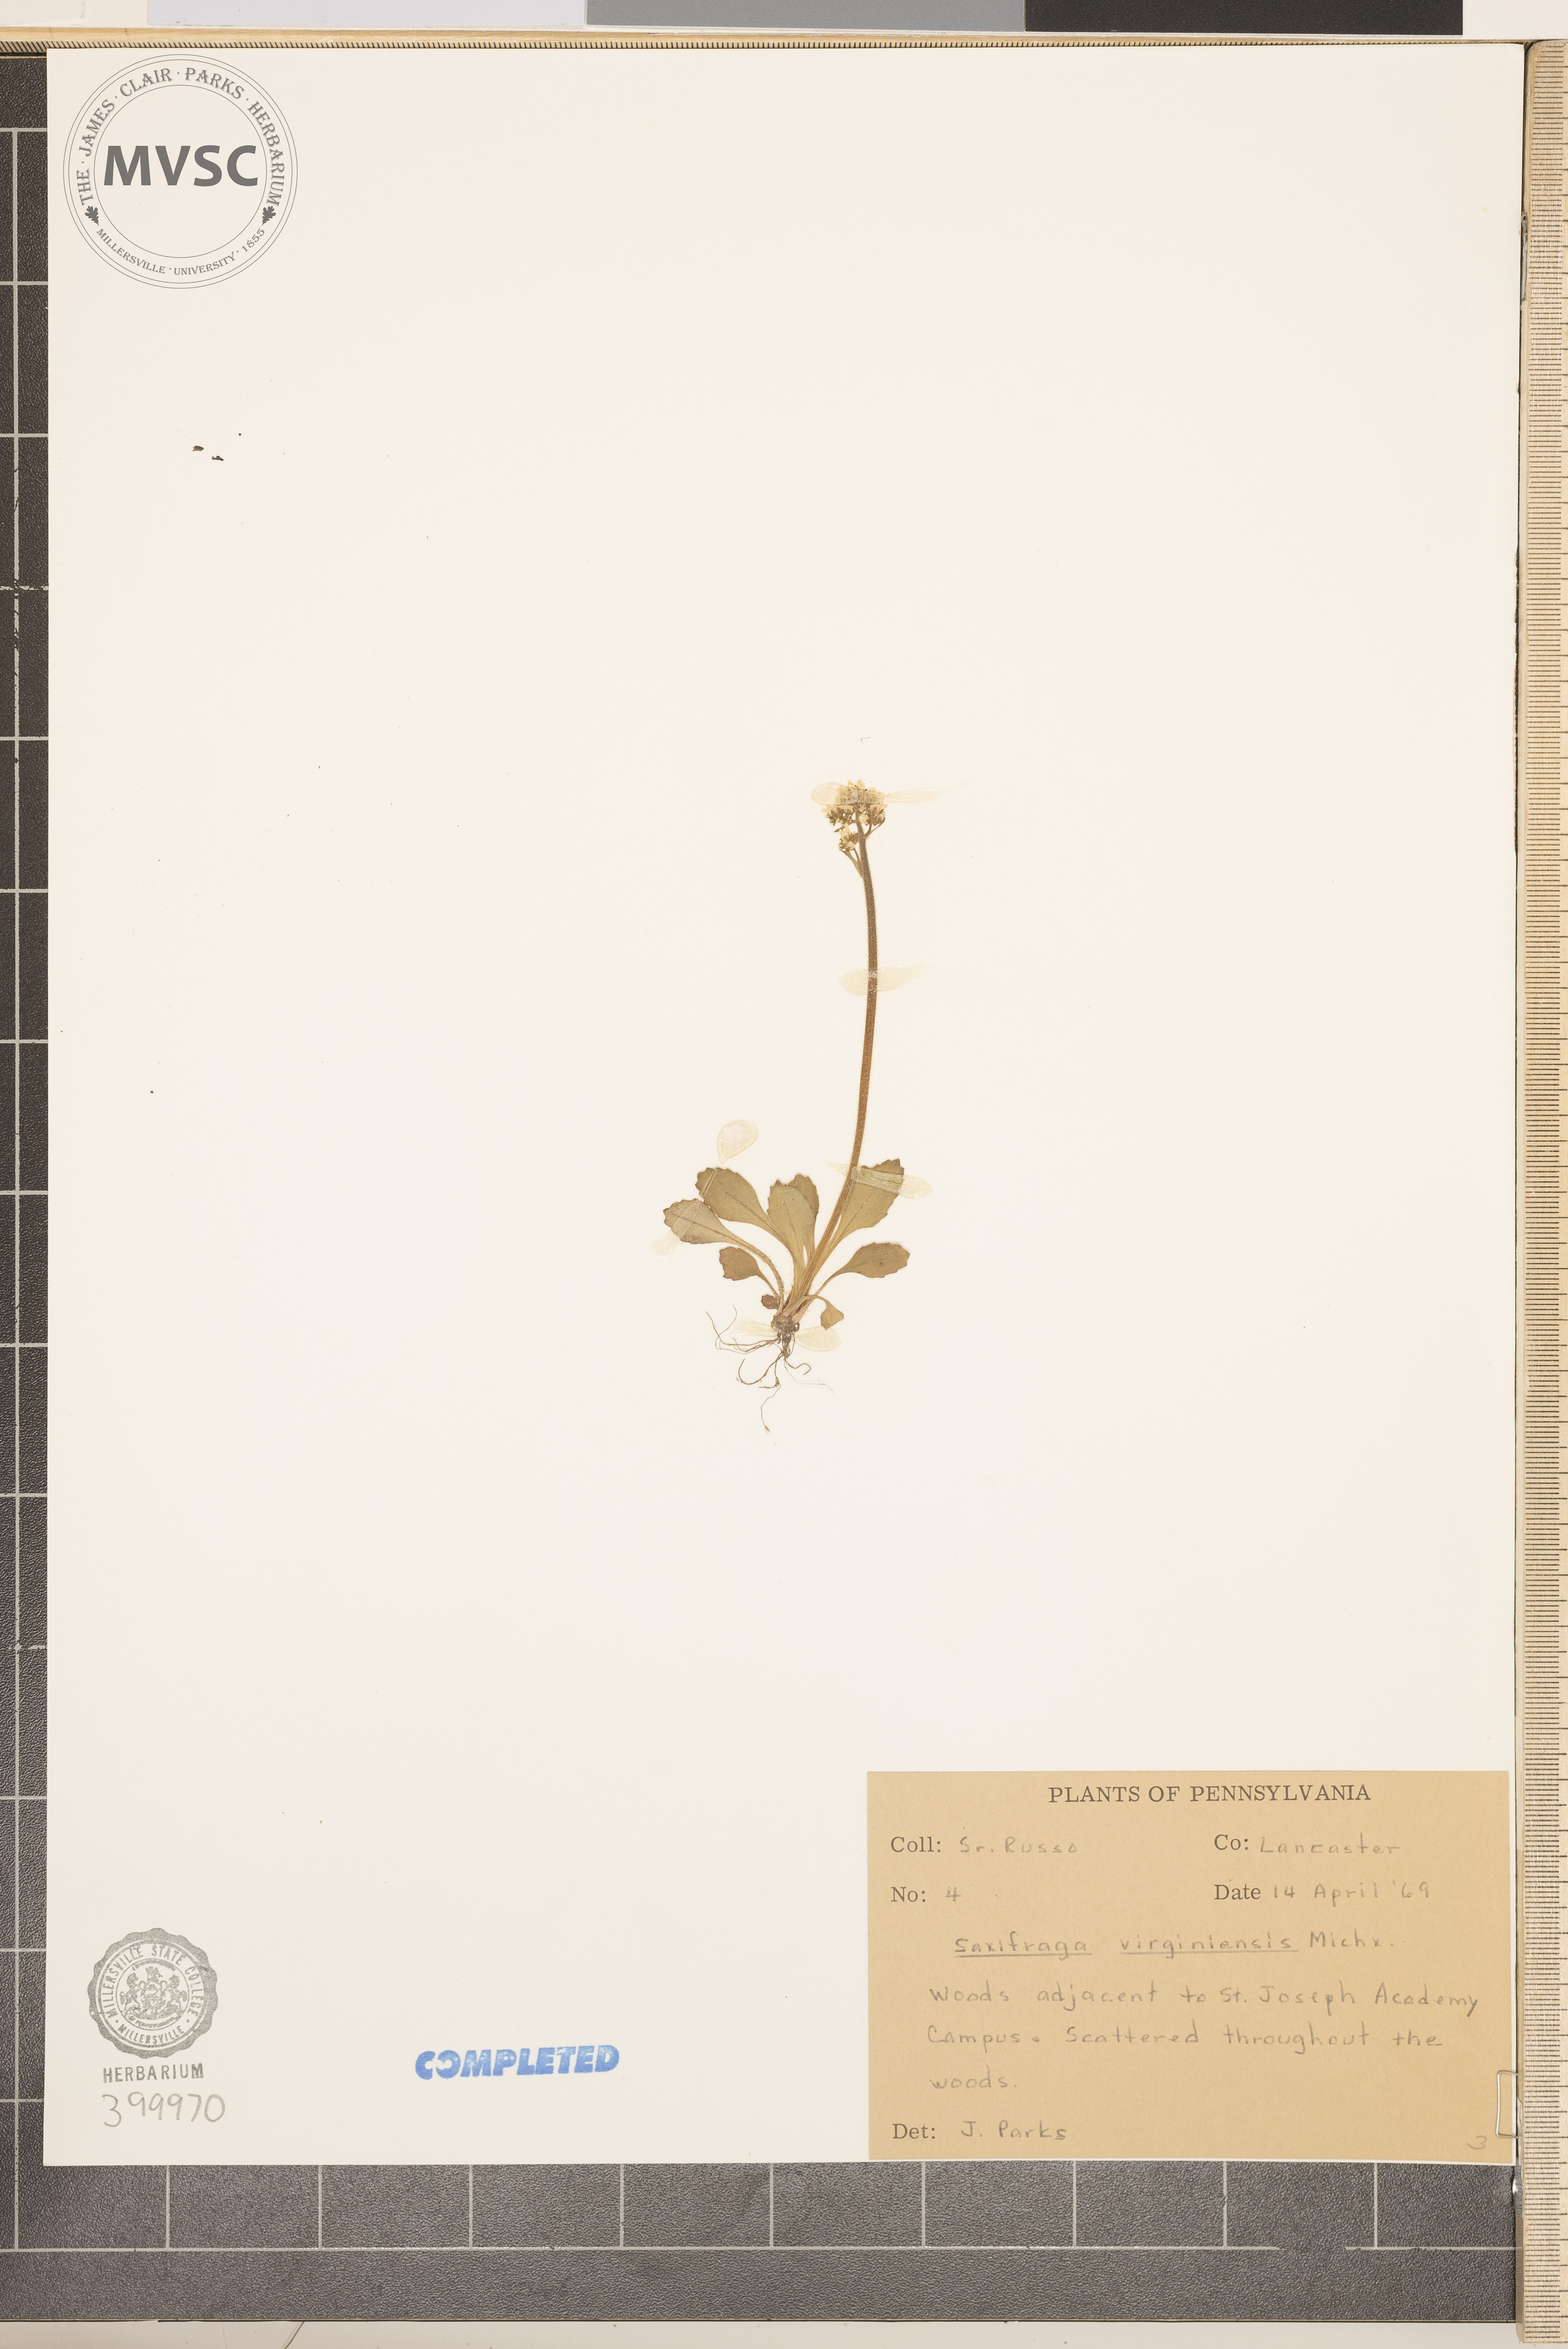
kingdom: Plantae
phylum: Tracheophyta
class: Magnoliopsida
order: Saxifragales
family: Saxifragaceae
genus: Micranthes
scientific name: Micranthes virginiensis
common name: saxifrage
